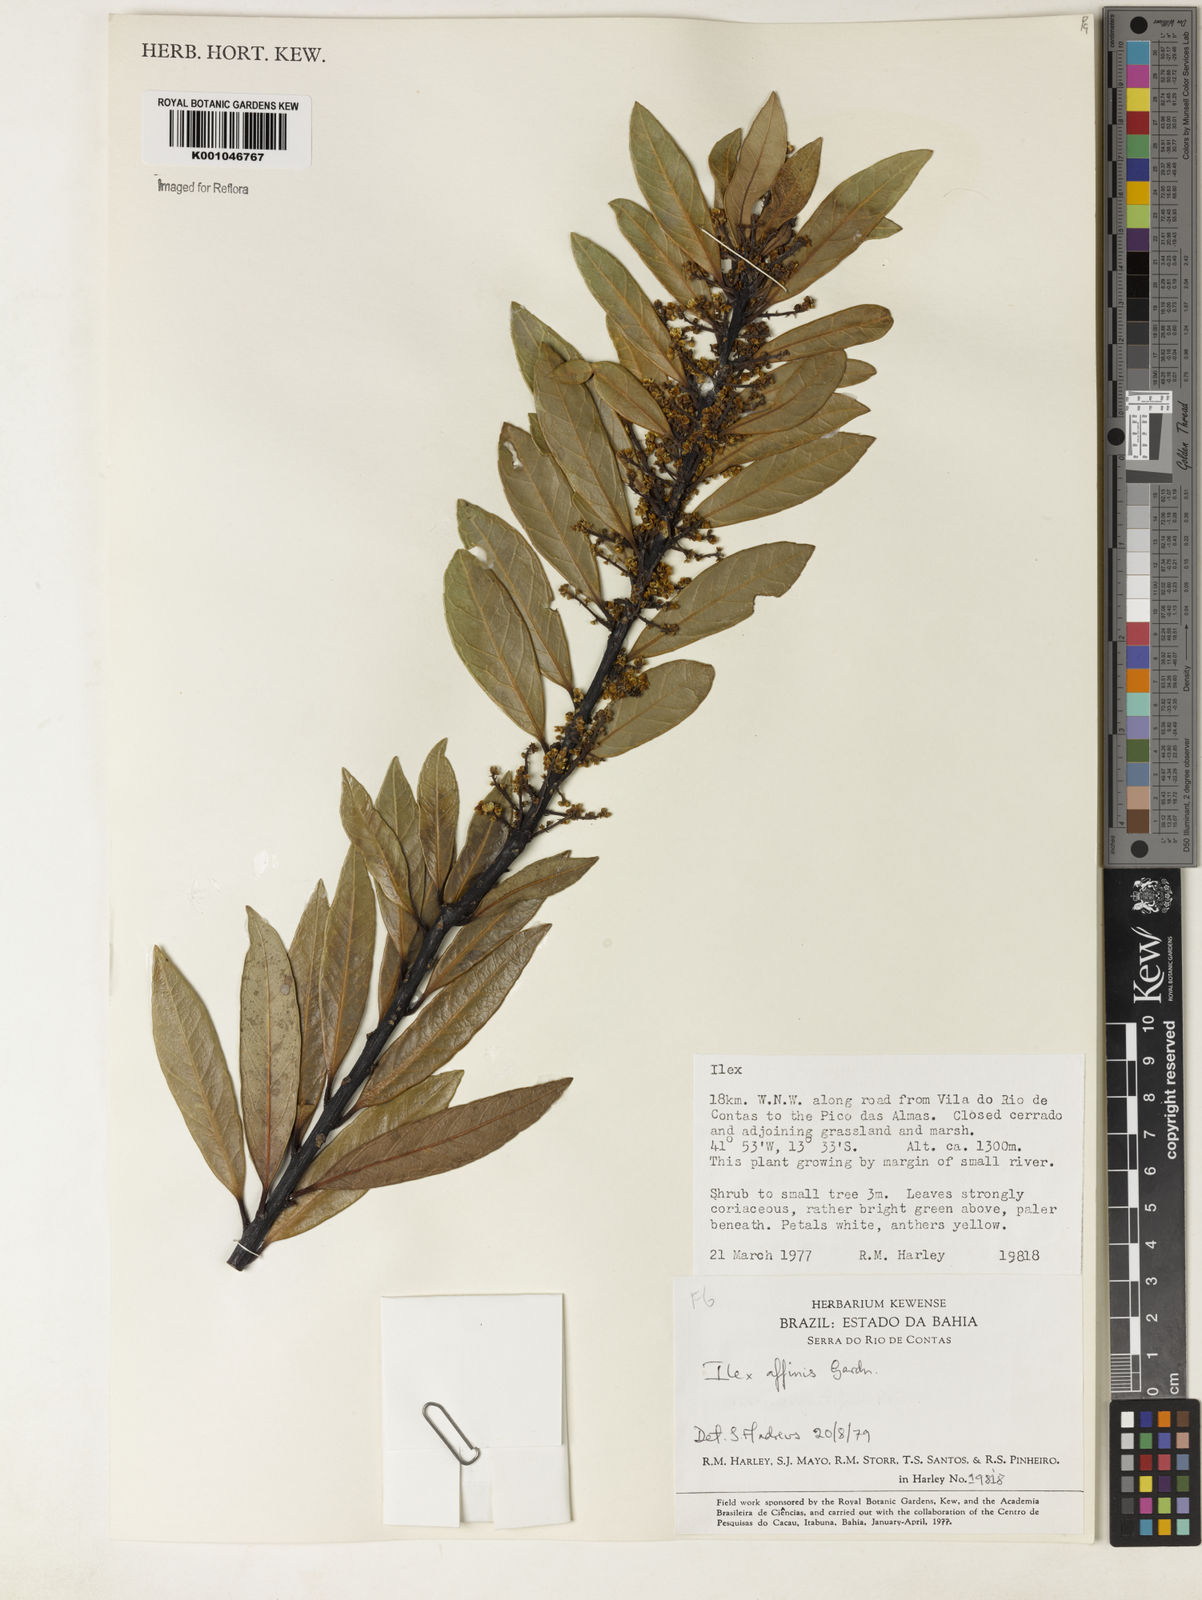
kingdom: Plantae
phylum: Tracheophyta
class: Magnoliopsida
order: Aquifoliales
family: Aquifoliaceae
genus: Ilex
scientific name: Ilex affinis
